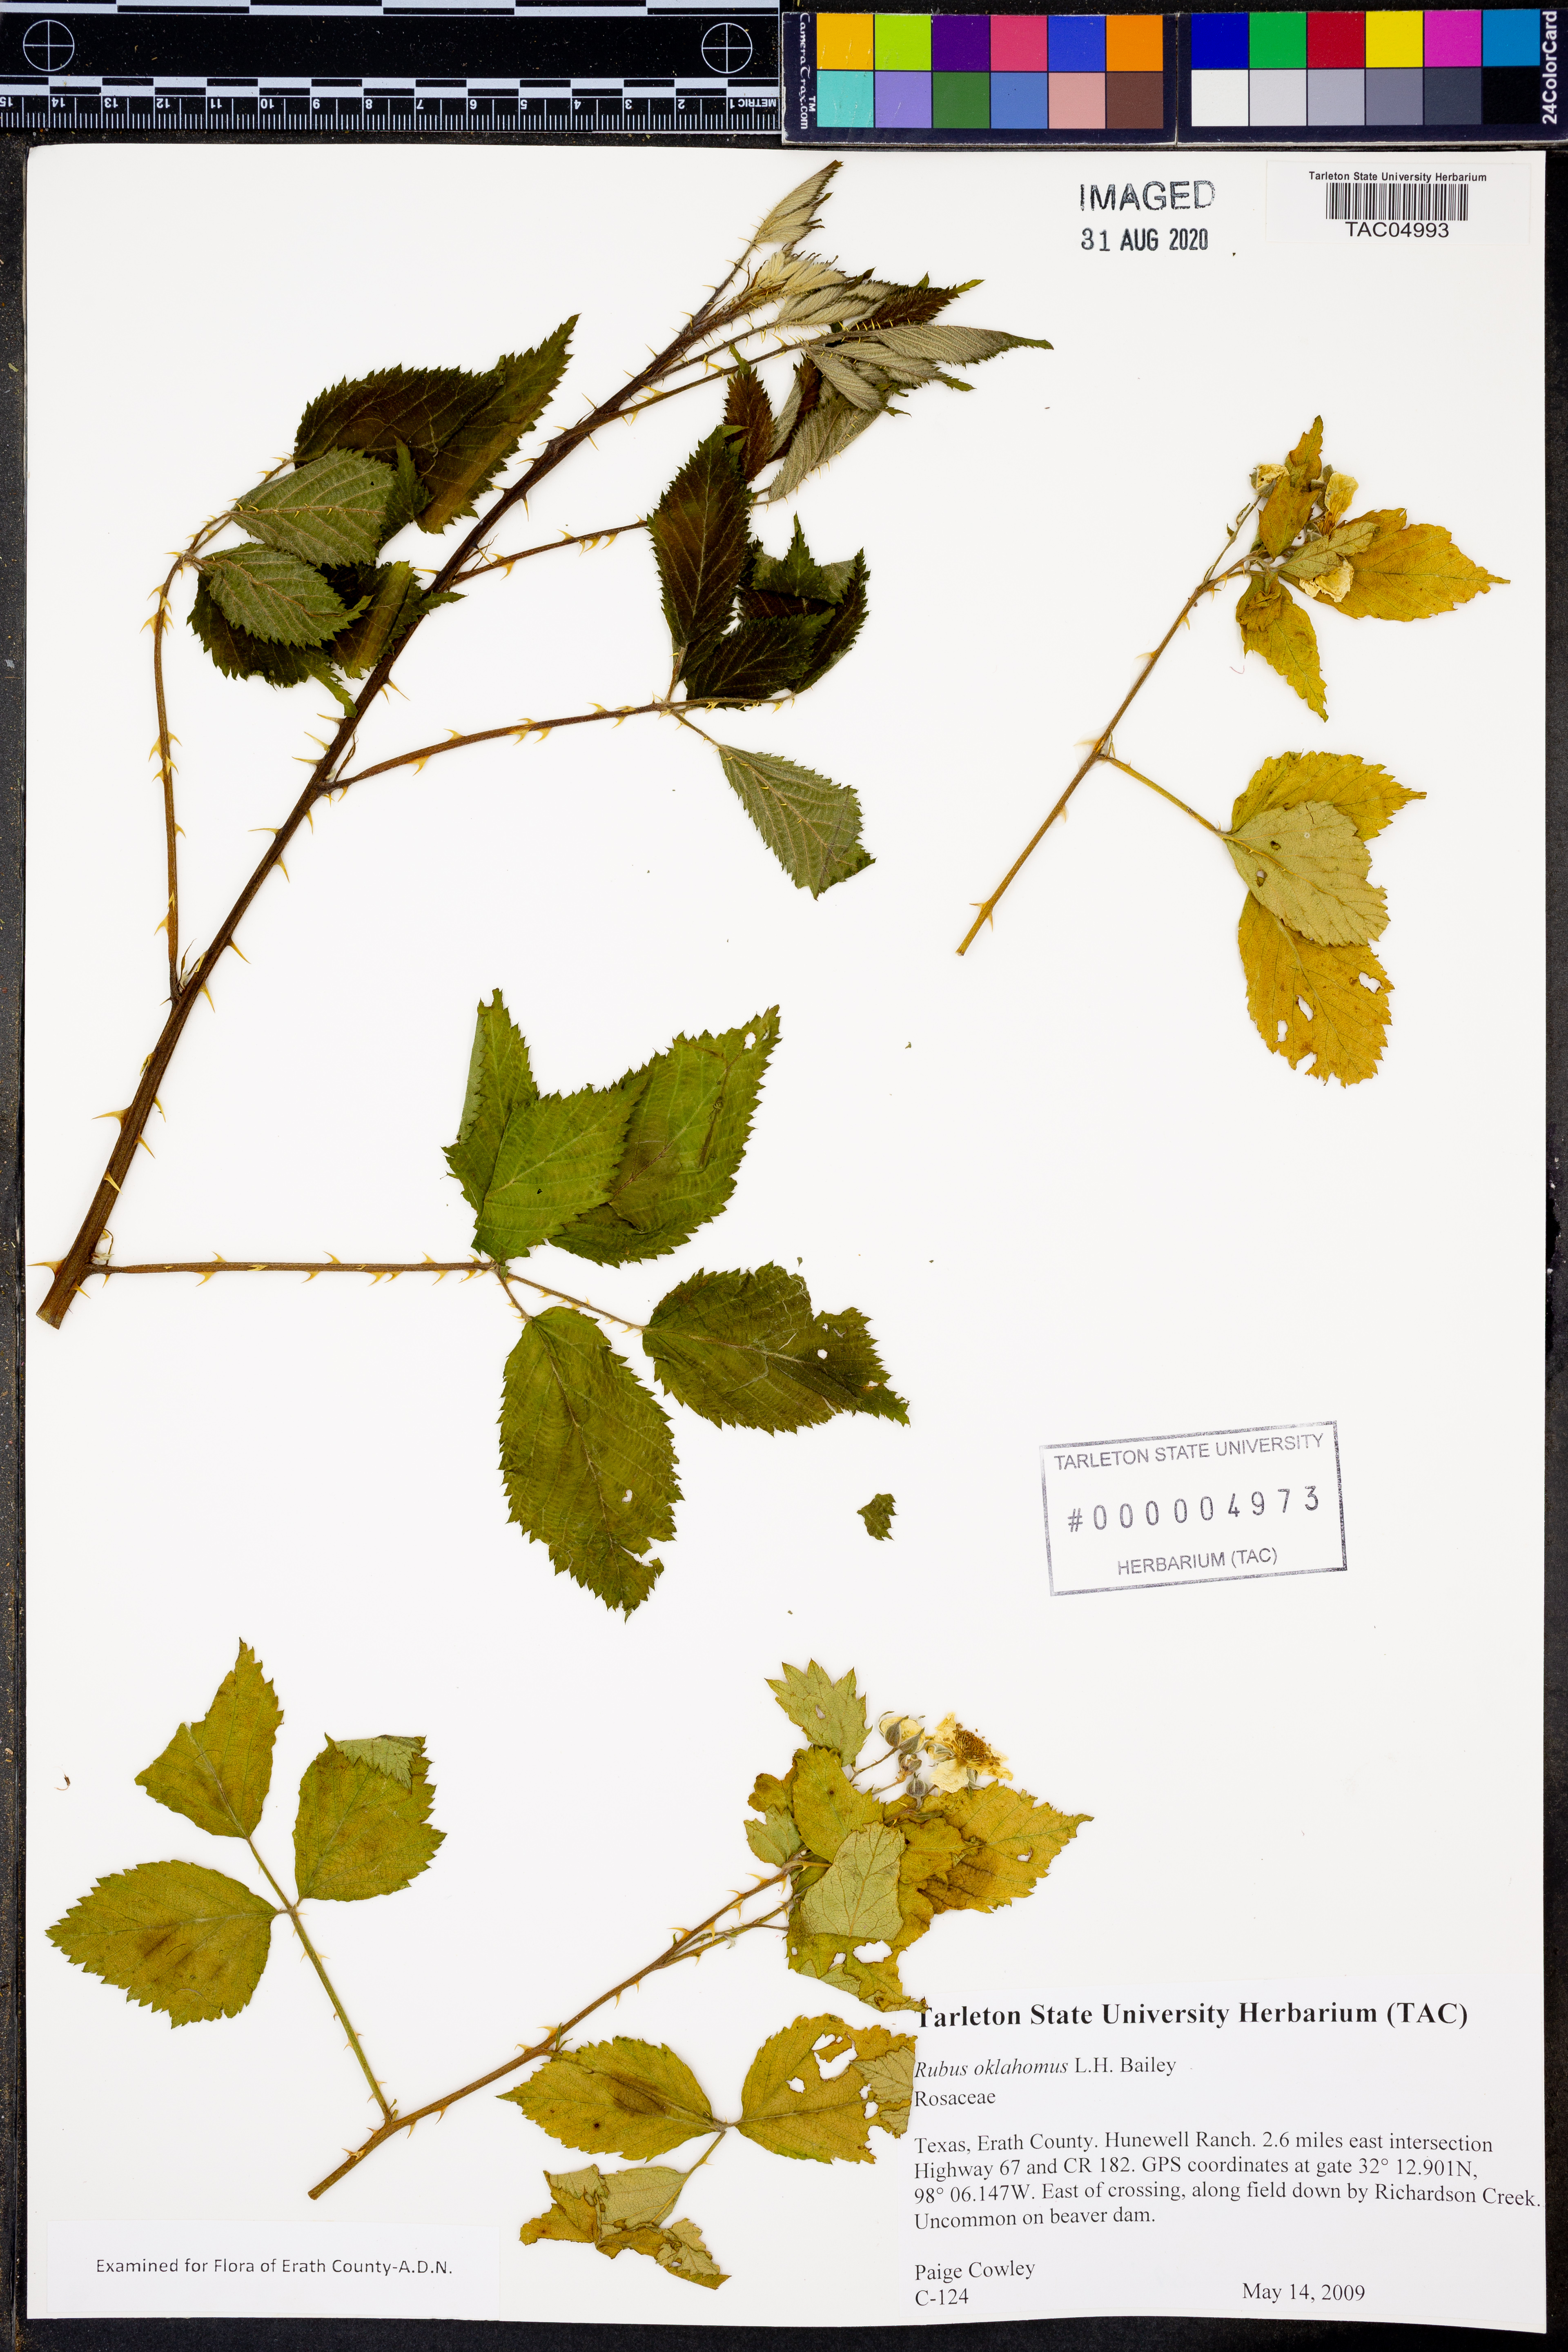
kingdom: Plantae
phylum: Tracheophyta
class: Magnoliopsida
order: Rosales
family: Rosaceae
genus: Rubus
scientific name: Rubus oklahomus
